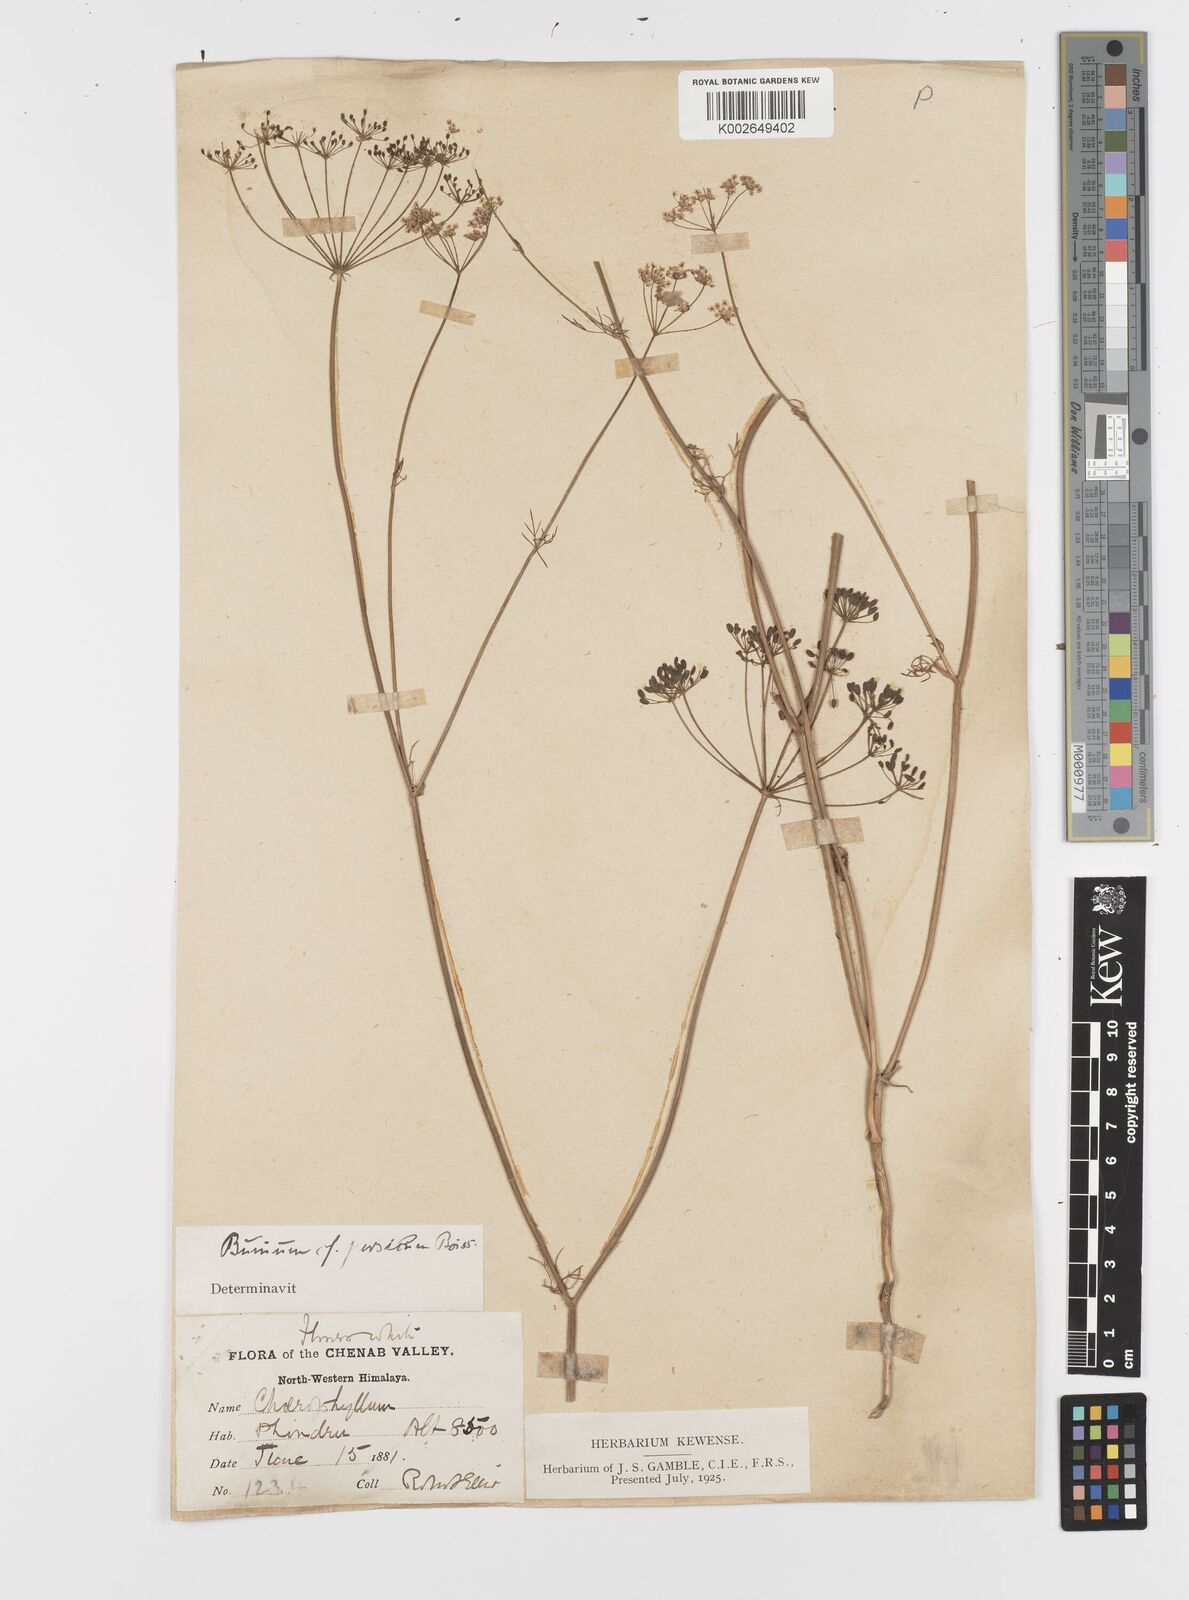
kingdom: Plantae
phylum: Tracheophyta
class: Magnoliopsida
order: Apiales
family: Apiaceae
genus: Elwendia
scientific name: Elwendia persica
